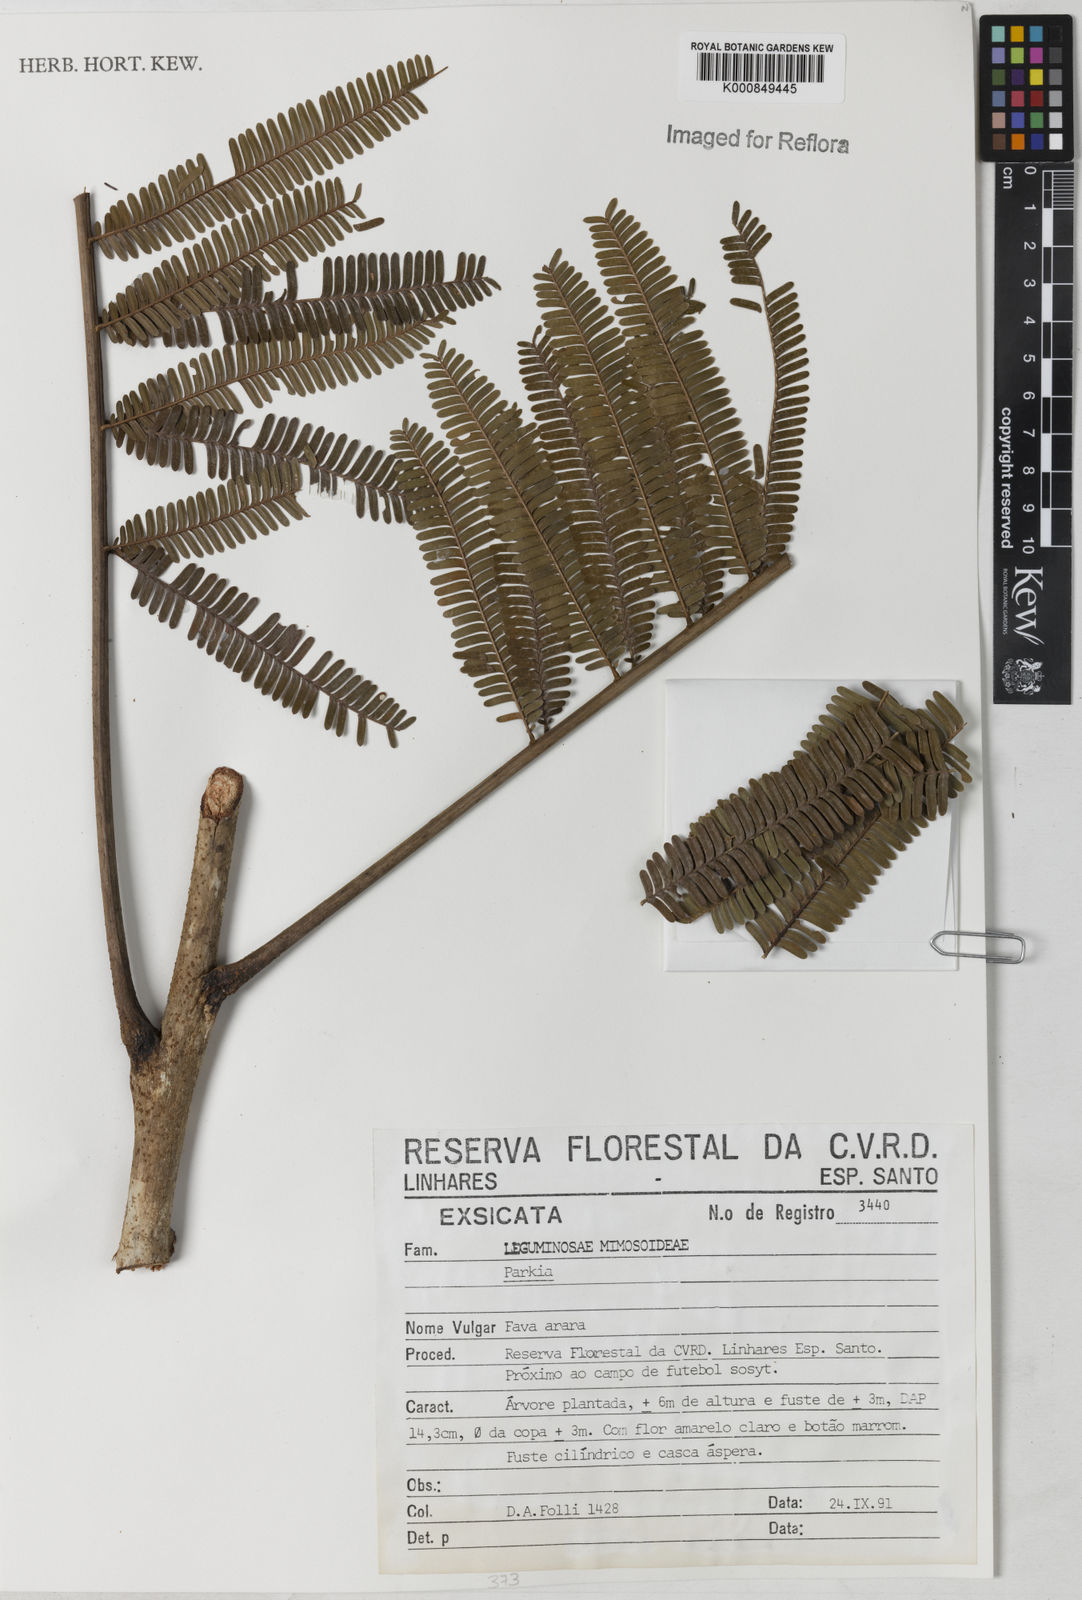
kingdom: Plantae
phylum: Tracheophyta
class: Magnoliopsida
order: Fabales
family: Fabaceae
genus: Parkia
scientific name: Parkia
